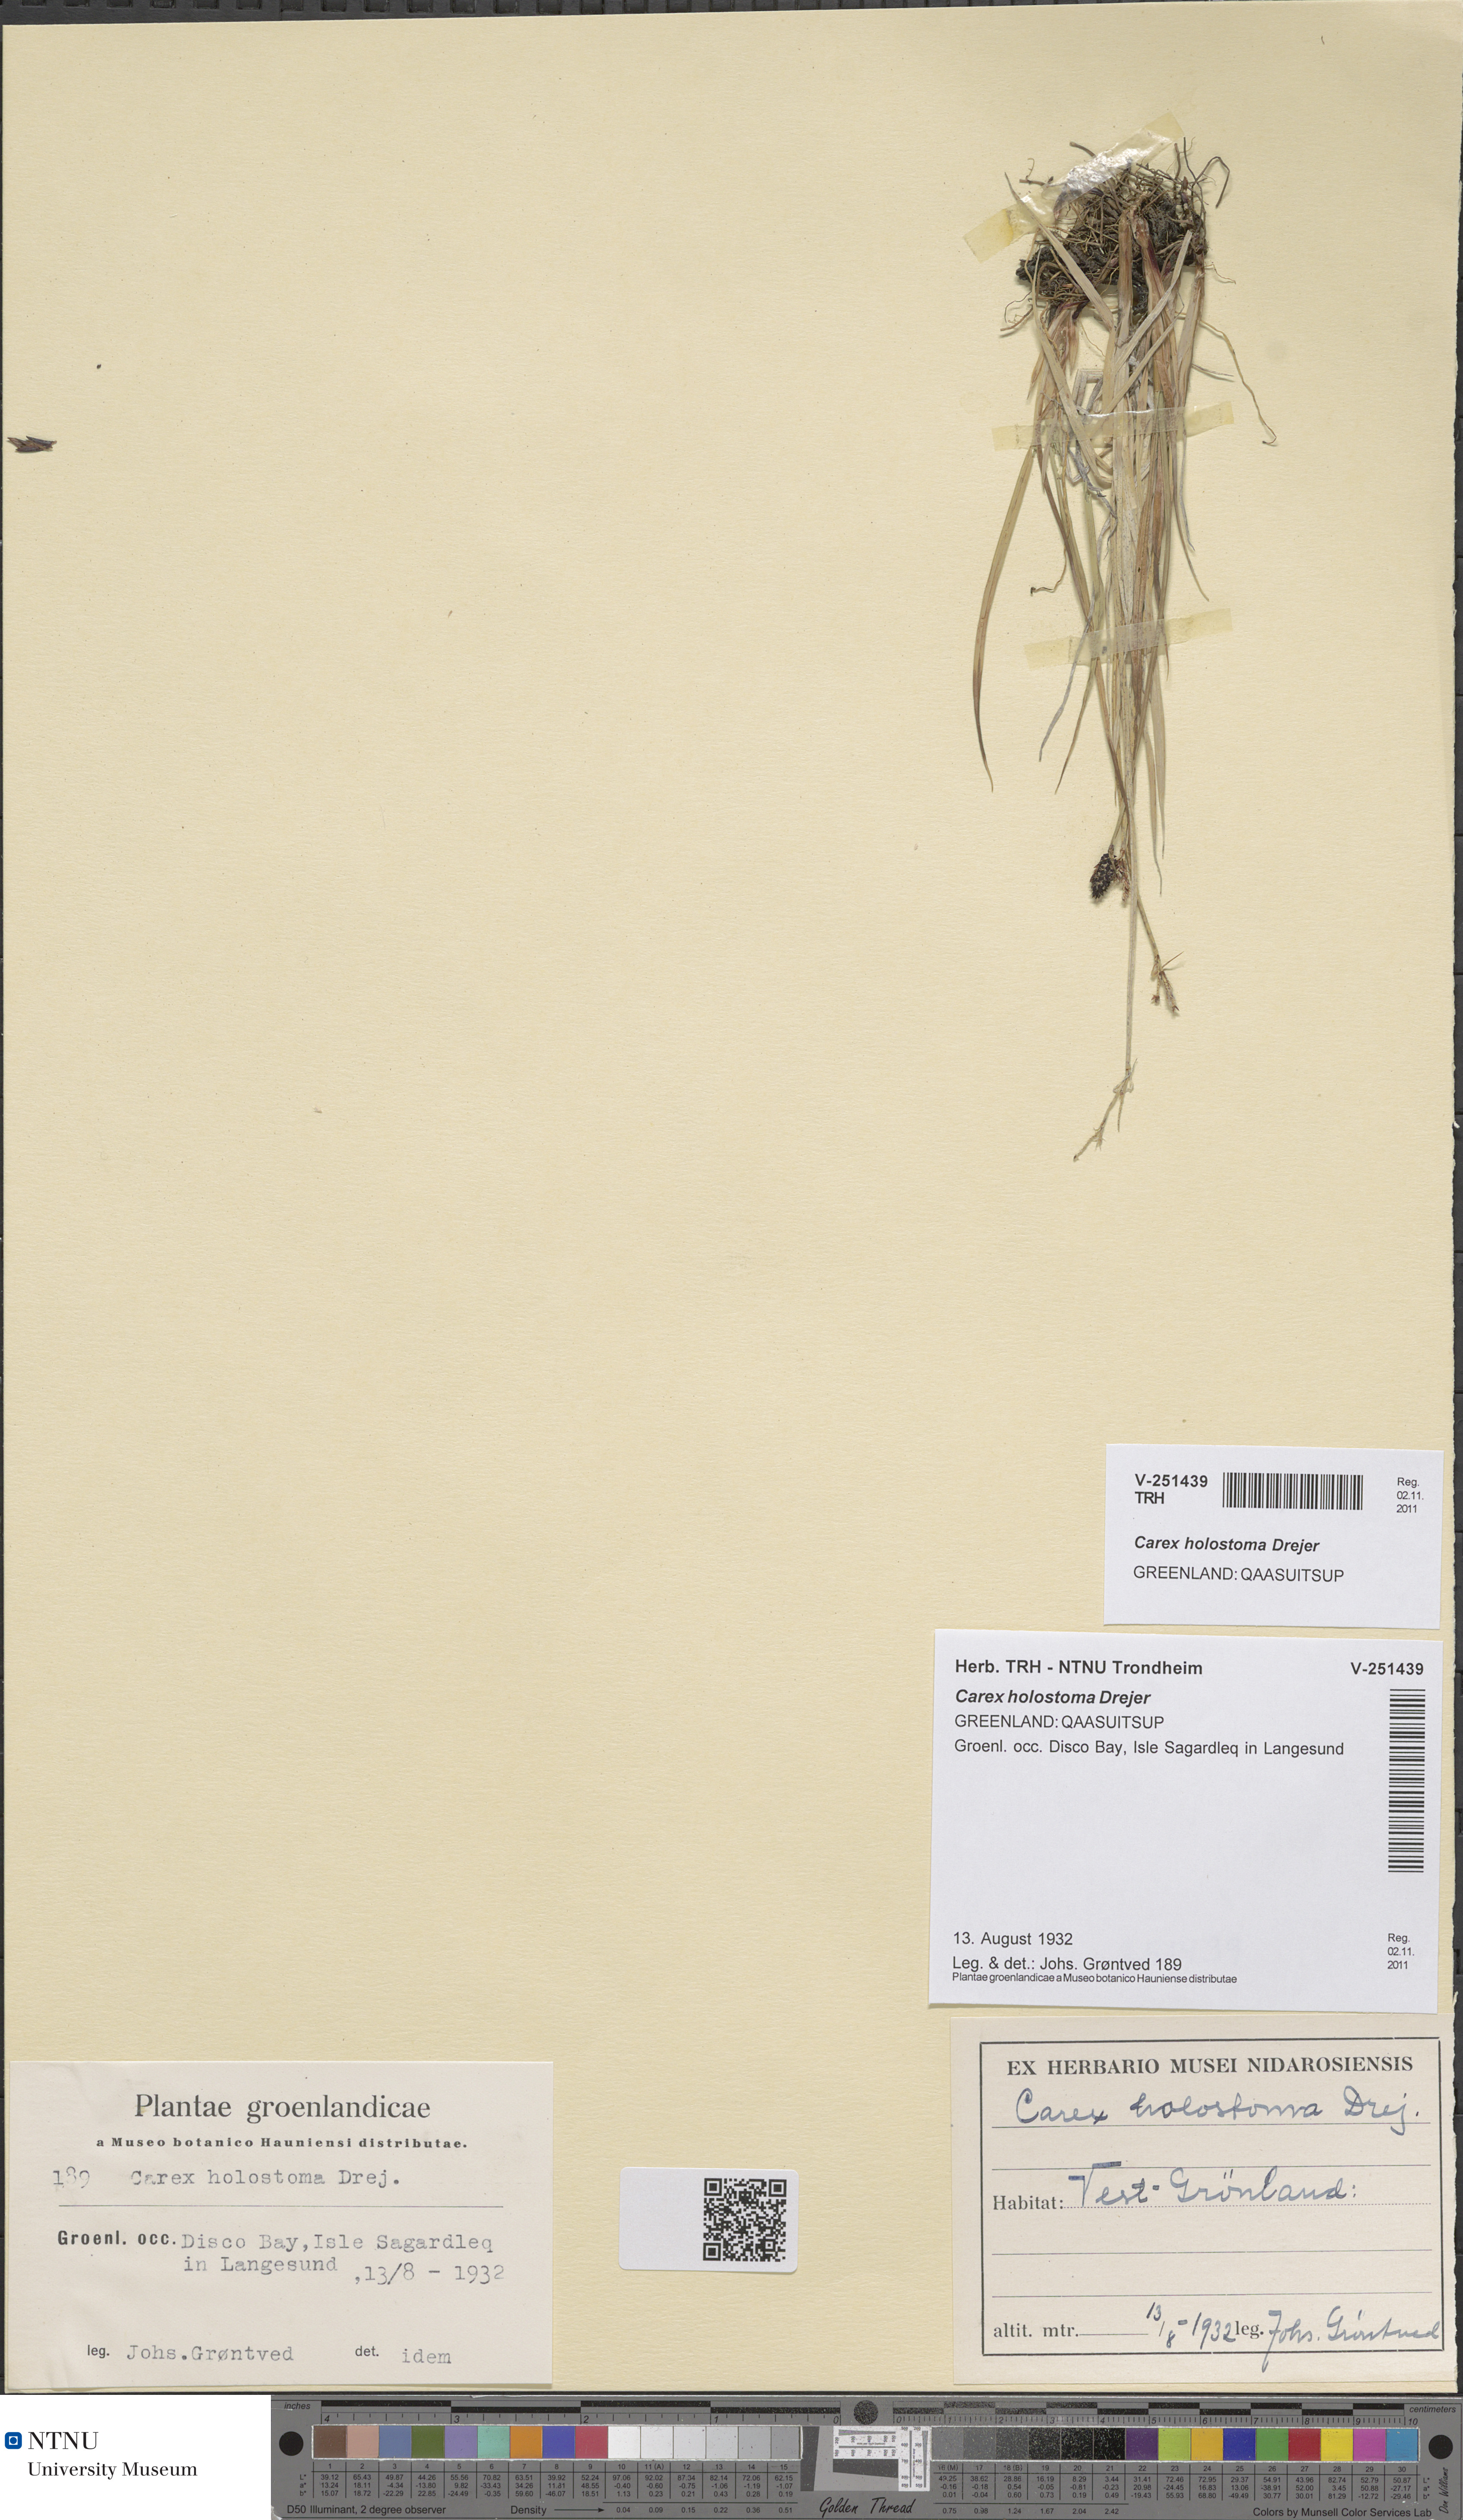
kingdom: Plantae
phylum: Tracheophyta
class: Liliopsida
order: Poales
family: Cyperaceae
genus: Carex
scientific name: Carex holostoma
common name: Arctic marsh sedge
